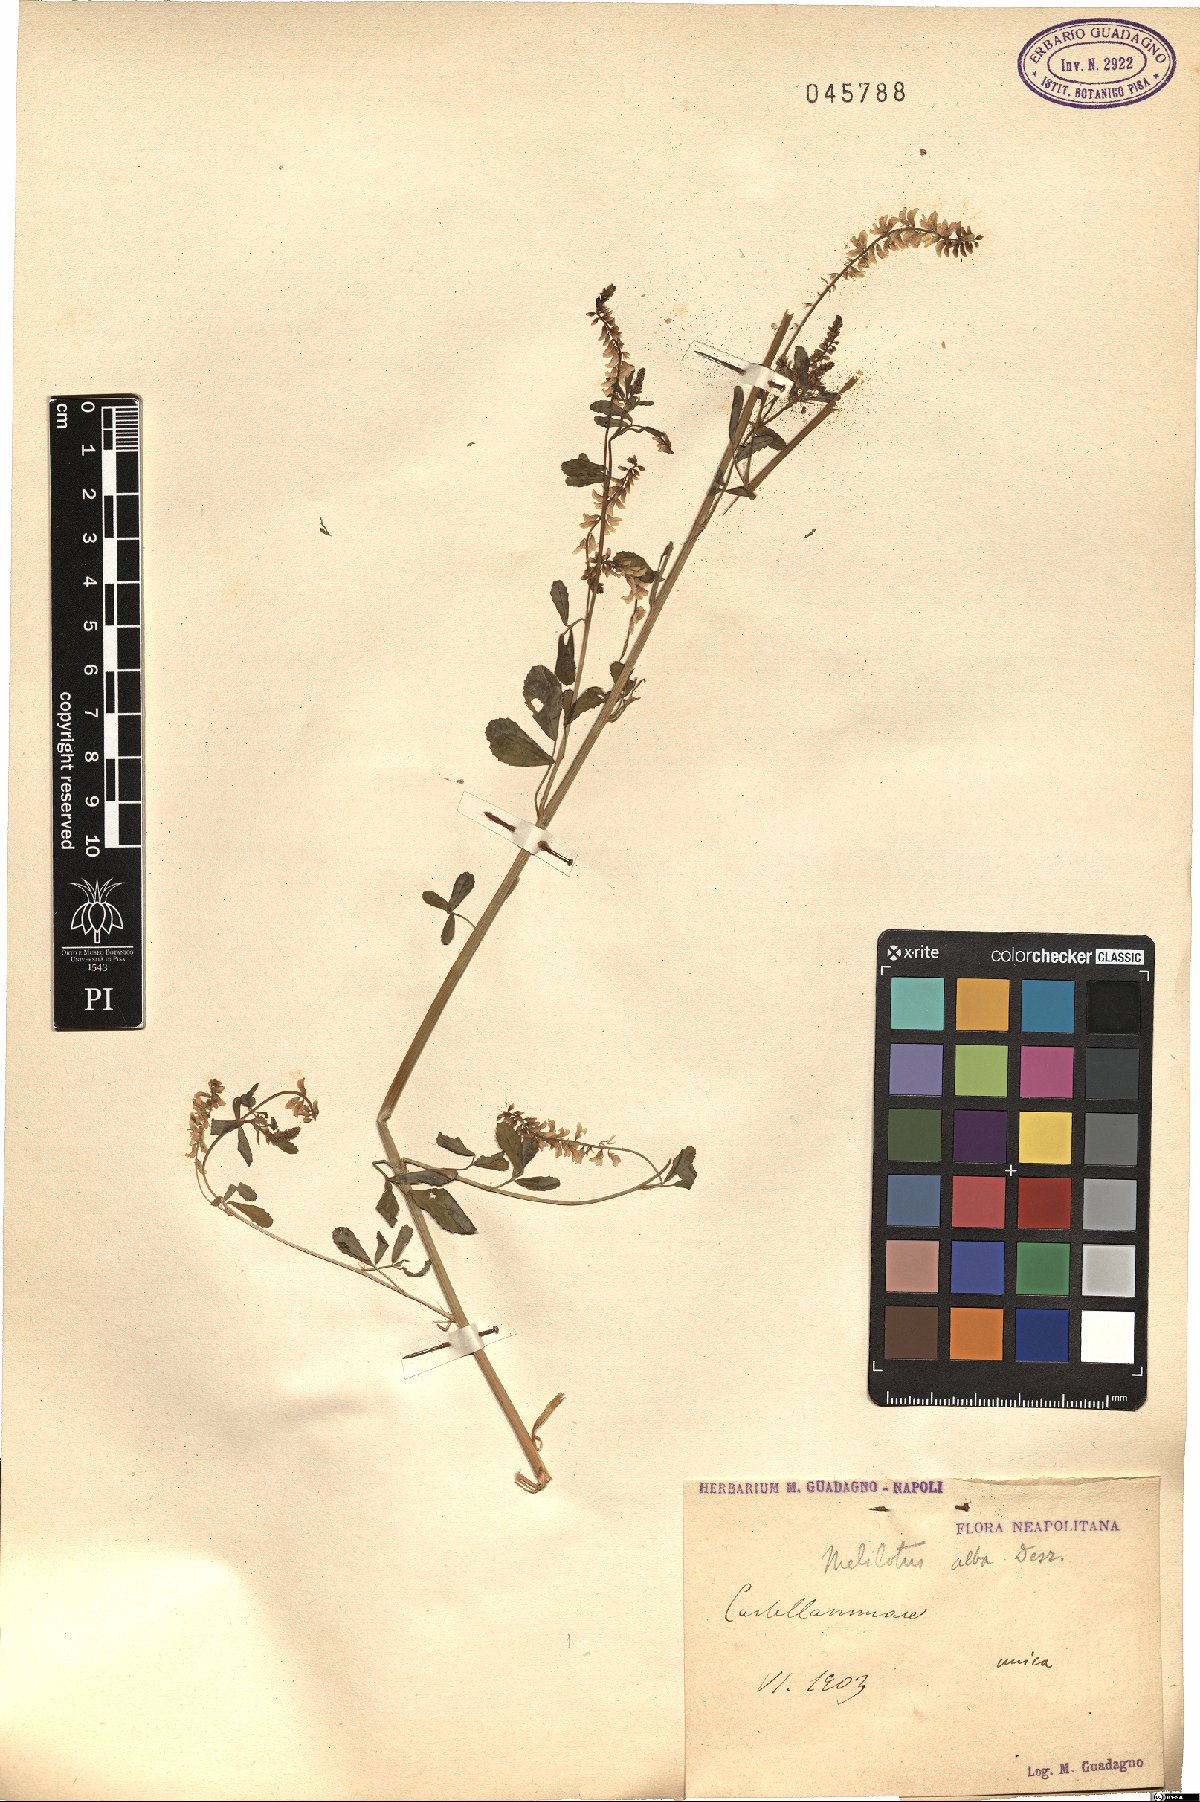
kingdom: Plantae
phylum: Tracheophyta
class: Magnoliopsida
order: Fabales
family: Fabaceae
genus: Melilotus
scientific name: Melilotus albus
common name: White melilot
